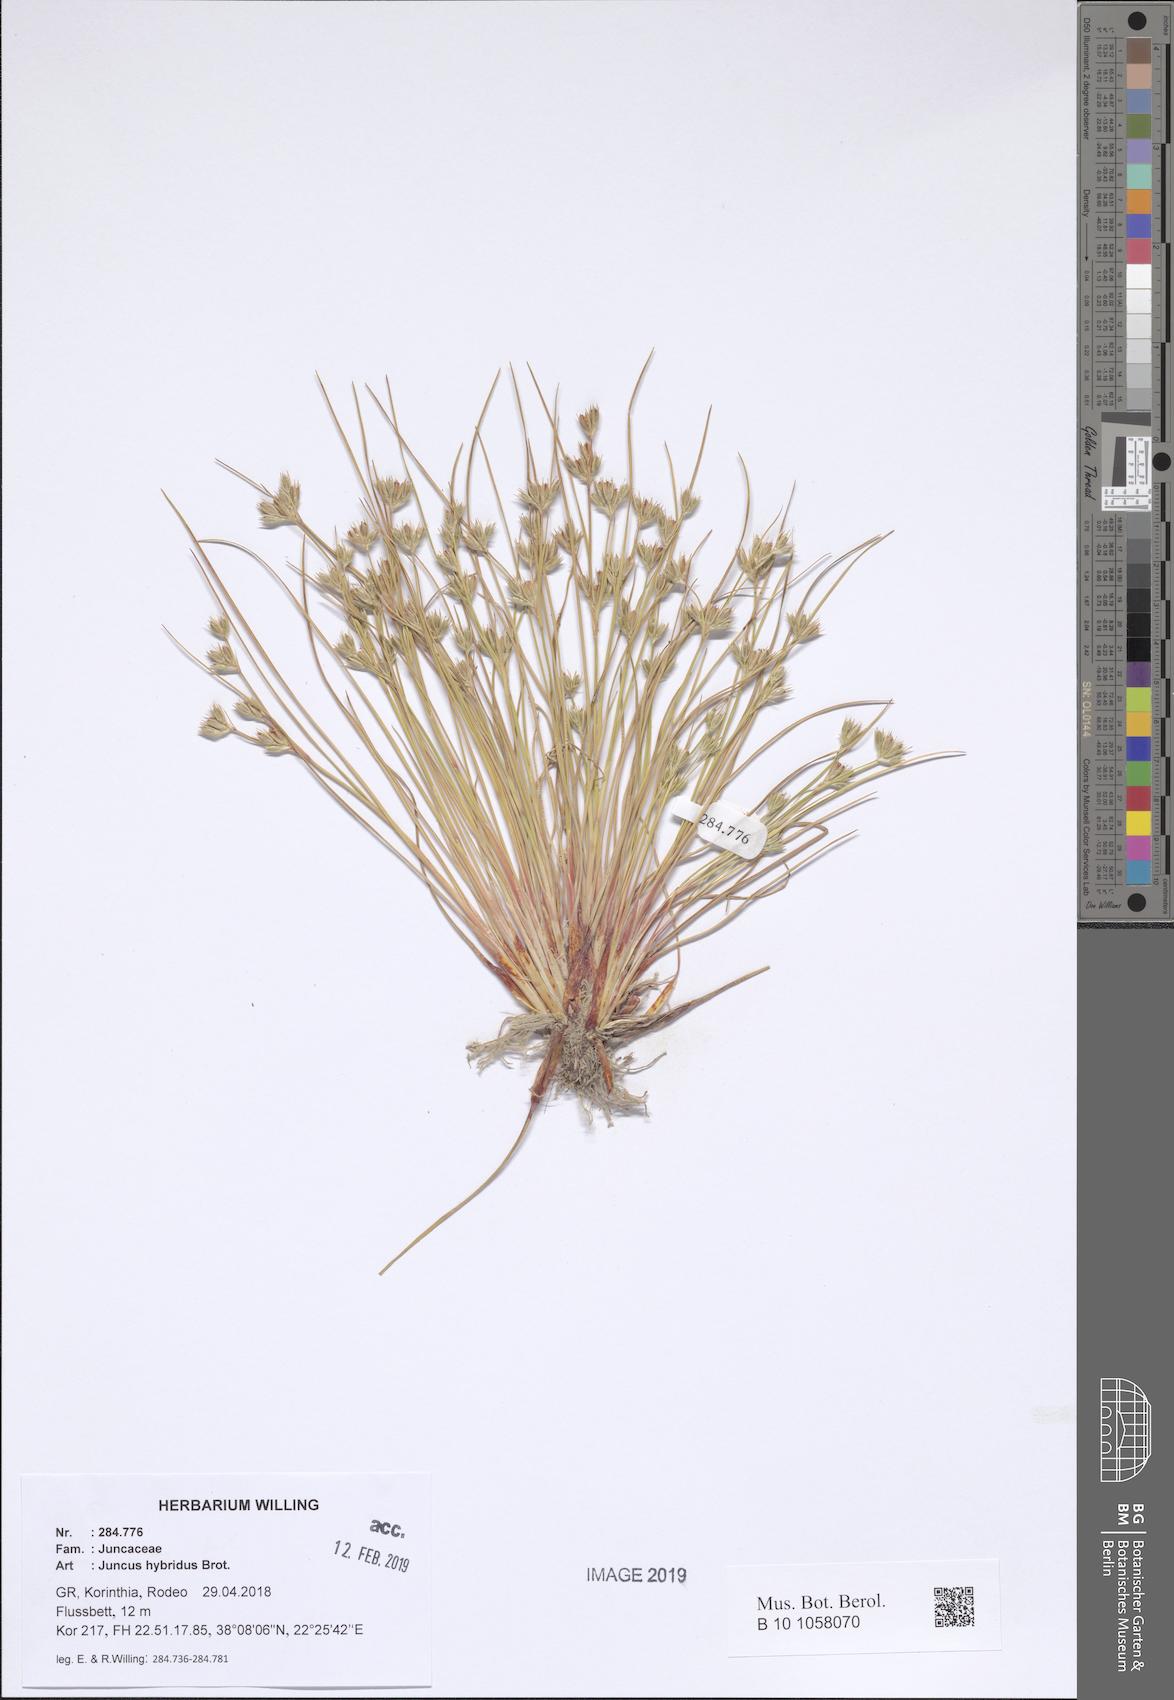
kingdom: Plantae
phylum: Tracheophyta
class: Liliopsida
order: Poales
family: Juncaceae
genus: Juncus
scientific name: Juncus hybridus
